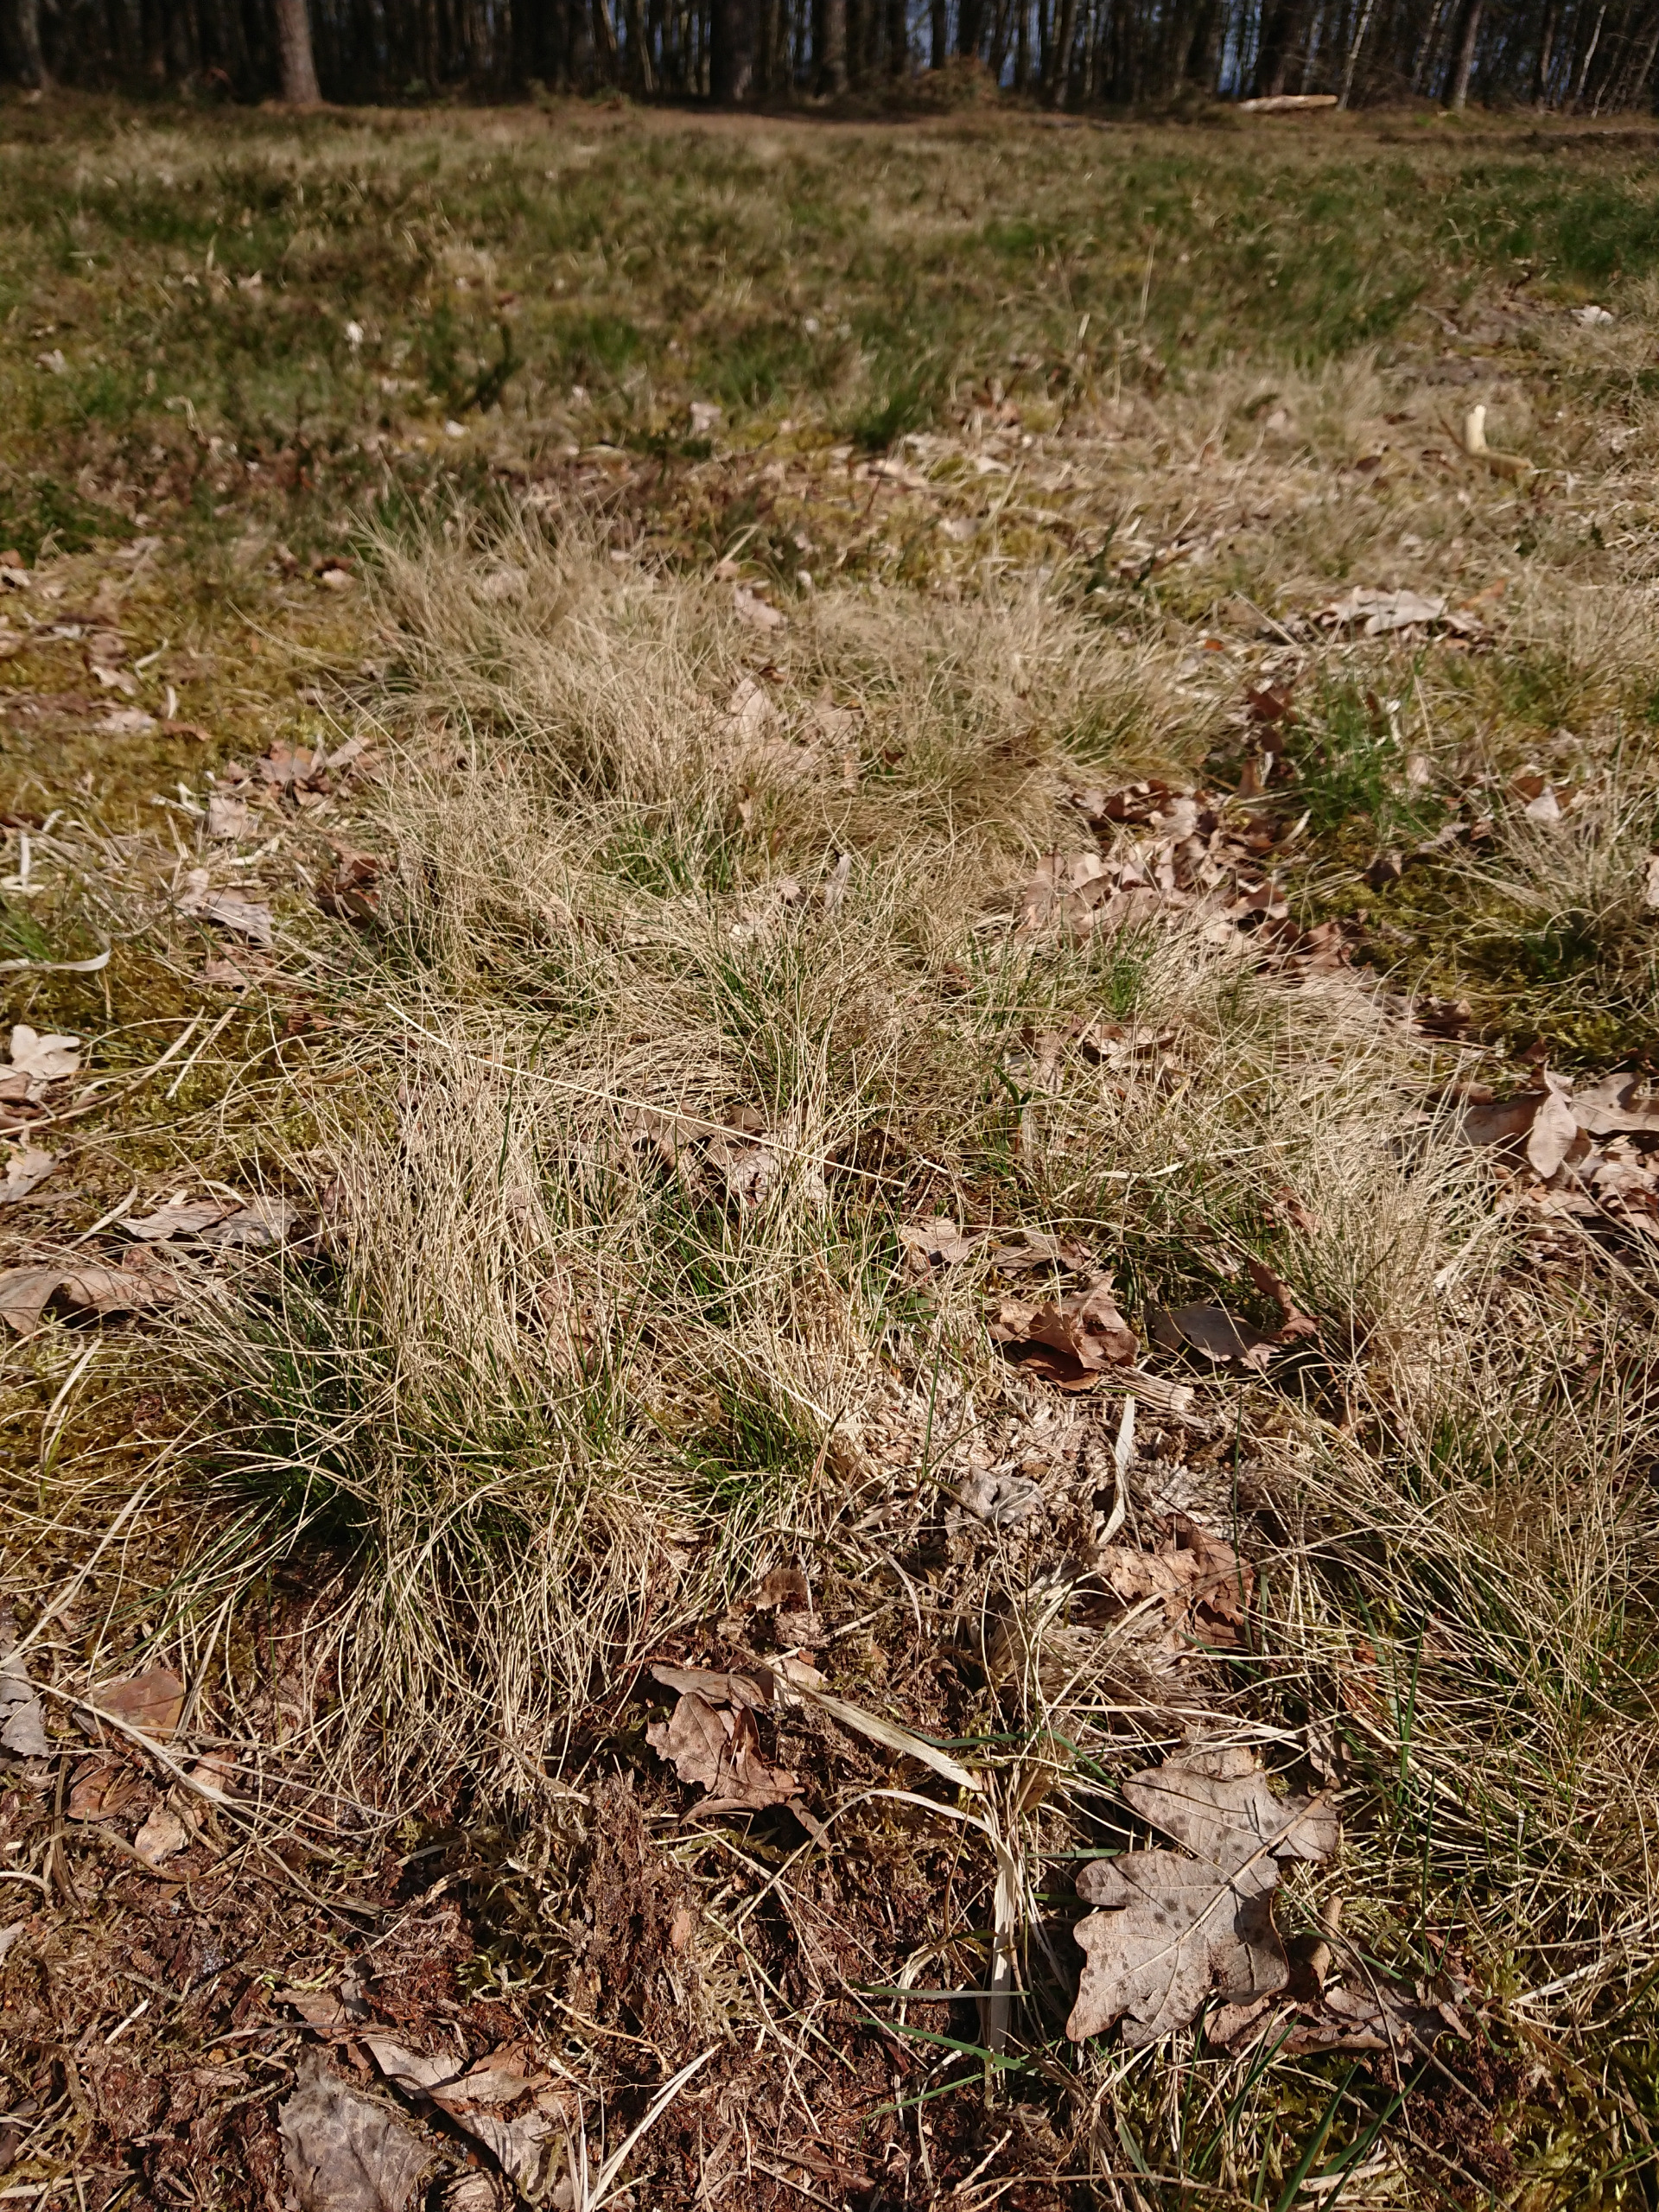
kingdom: Plantae
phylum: Tracheophyta
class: Liliopsida
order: Poales
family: Poaceae
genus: Nardus
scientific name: Nardus stricta
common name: Katteskæg
